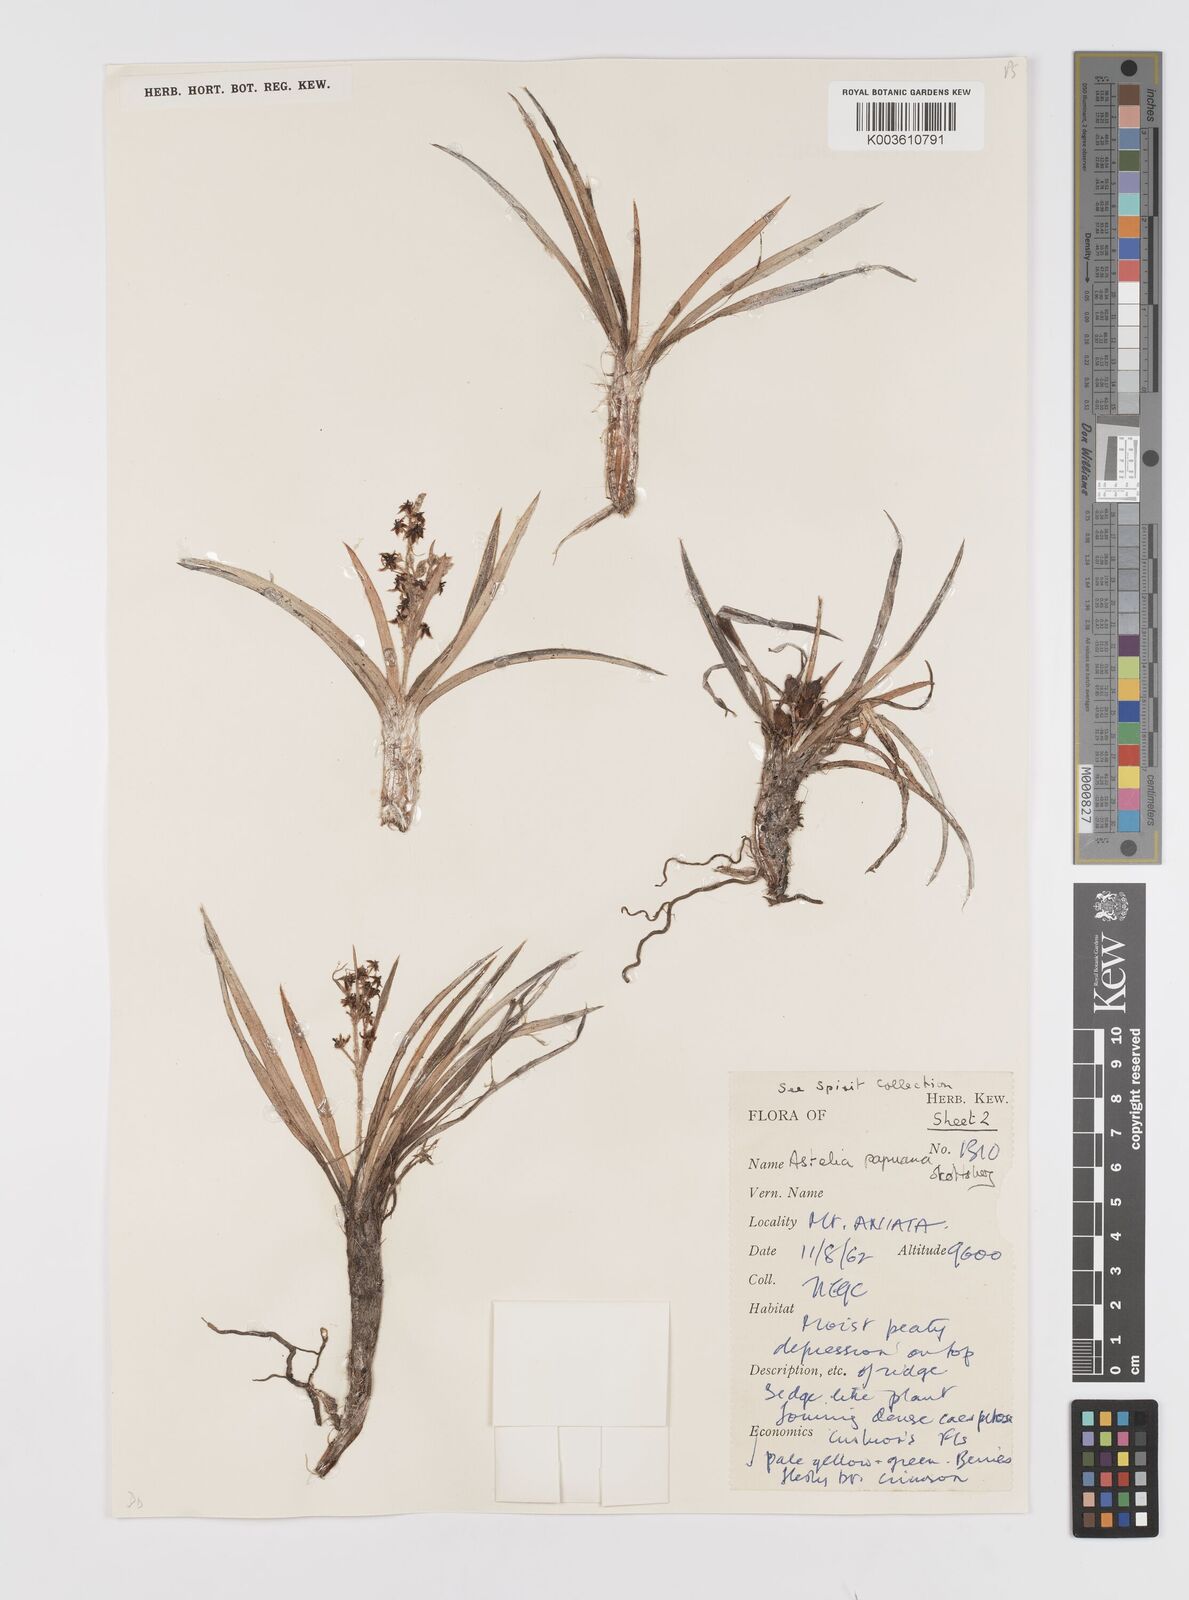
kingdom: Plantae
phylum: Tracheophyta
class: Liliopsida
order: Asparagales
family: Asteliaceae
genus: Astelia
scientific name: Astelia alpina
